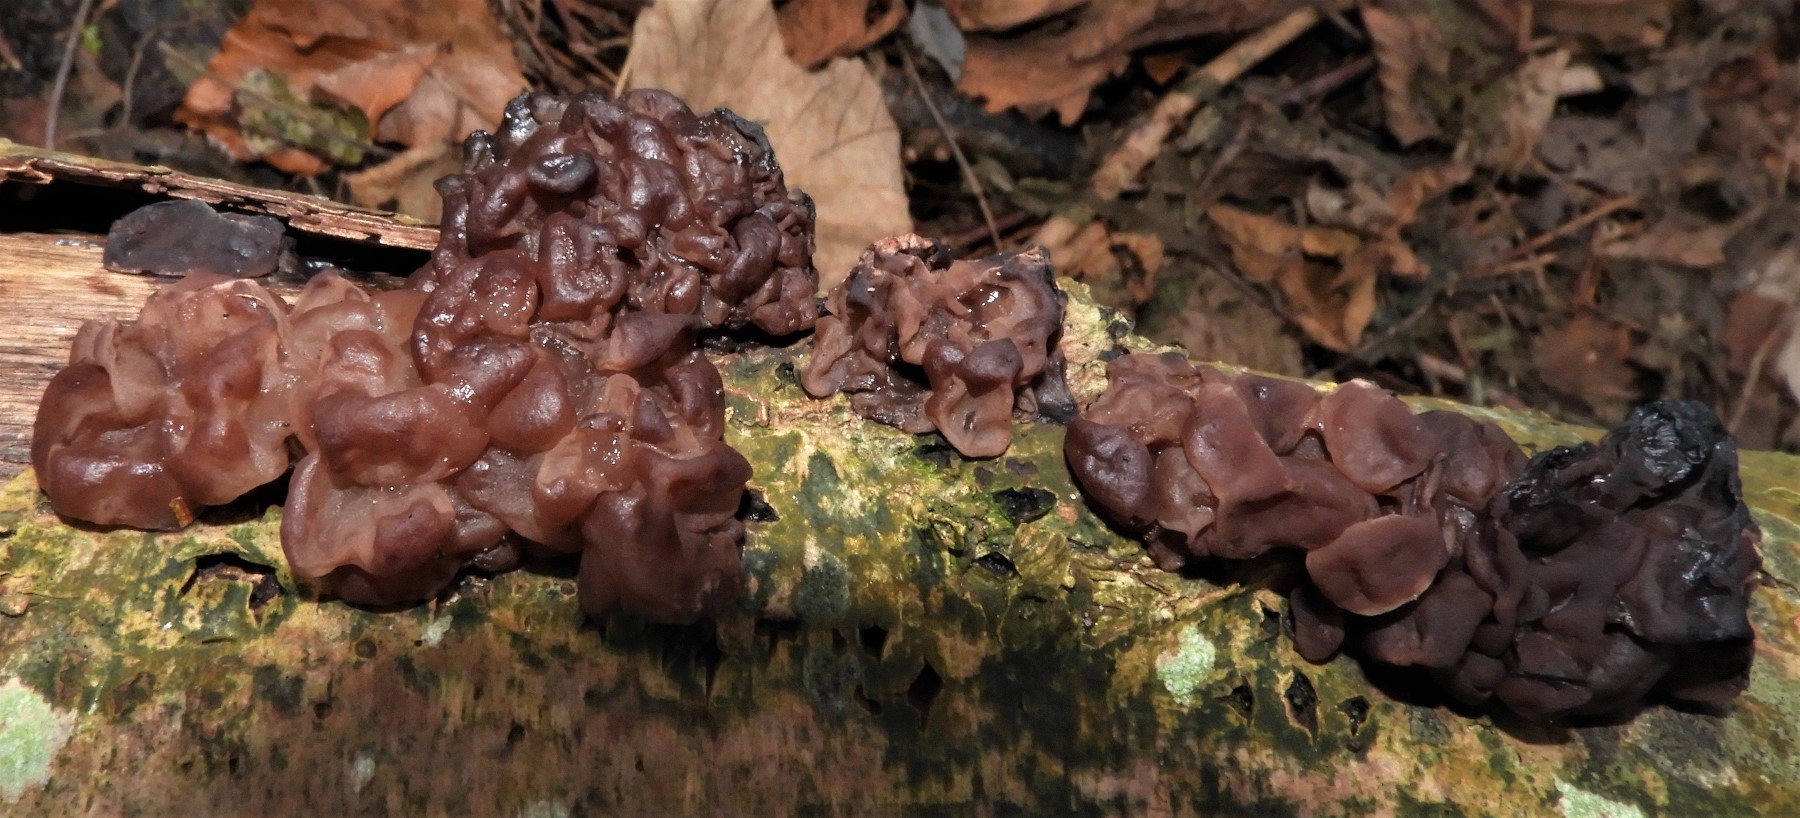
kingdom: Fungi
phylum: Ascomycota
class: Leotiomycetes
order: Helotiales
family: Gelatinodiscaceae
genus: Ascotremella
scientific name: Ascotremella faginea
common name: hjerne-bævreskive
